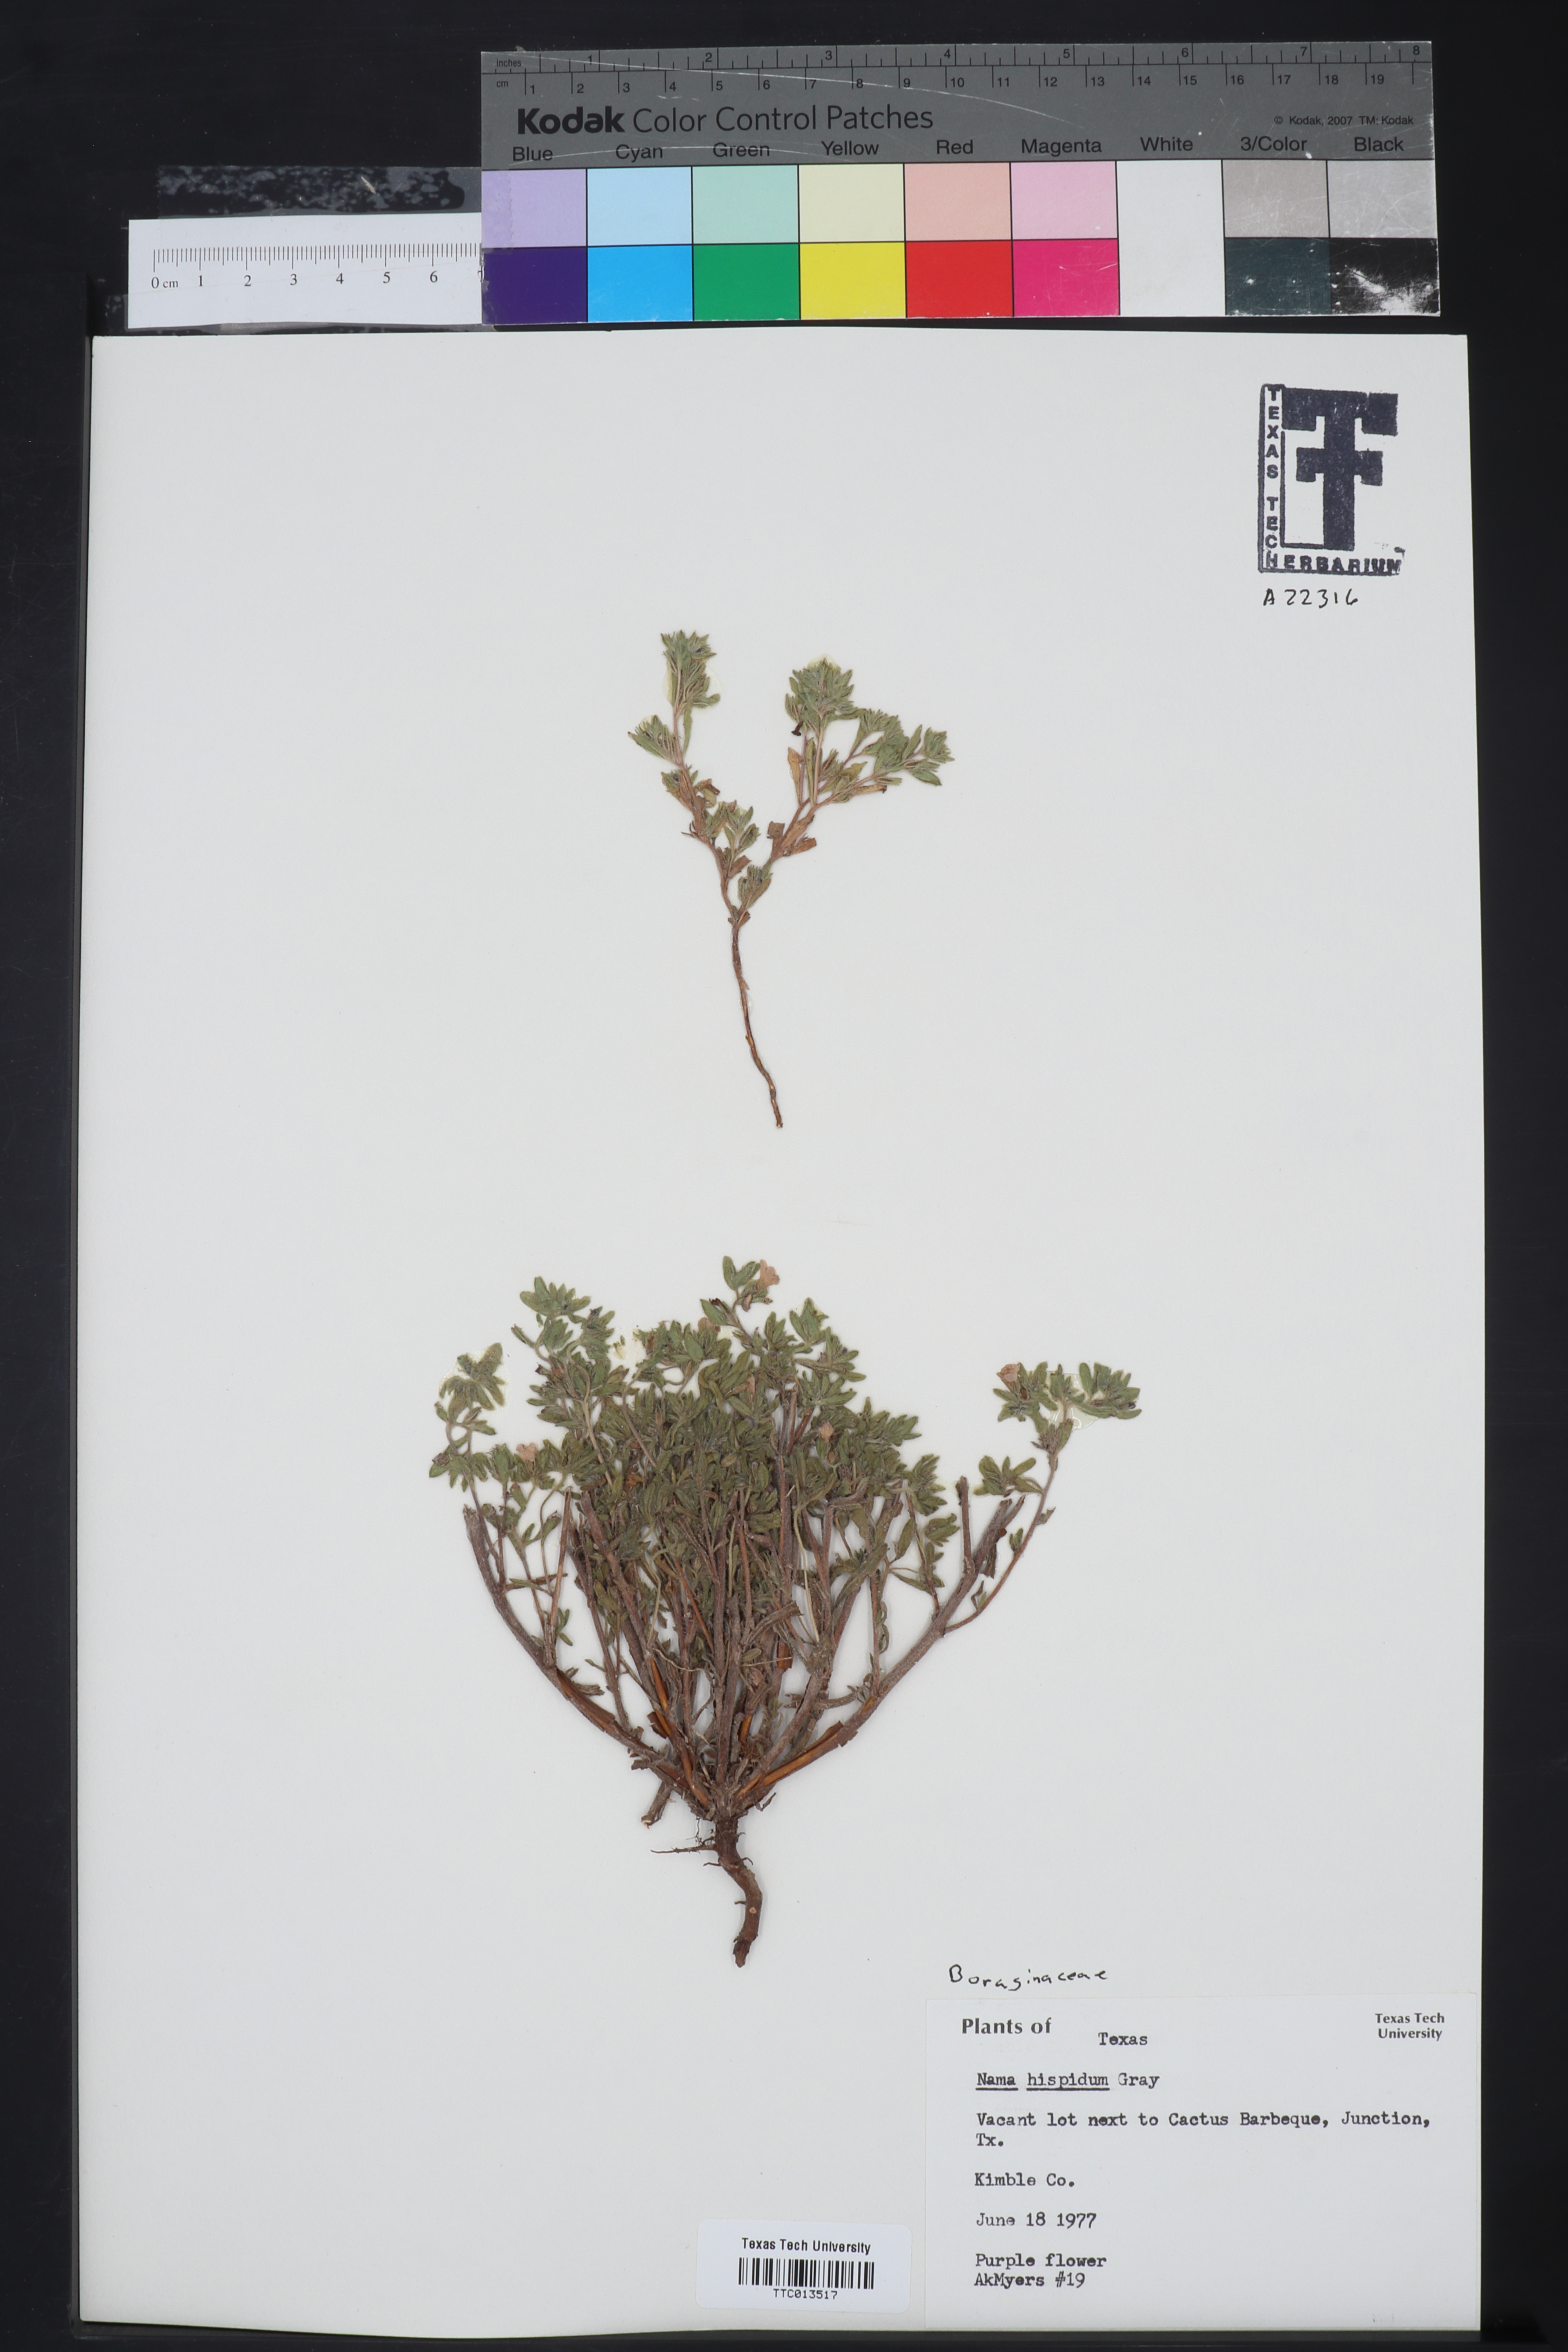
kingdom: Plantae
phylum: Tracheophyta
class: Magnoliopsida
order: Boraginales
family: Namaceae
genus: Nama
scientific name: Nama hispida
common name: Bristly nama
